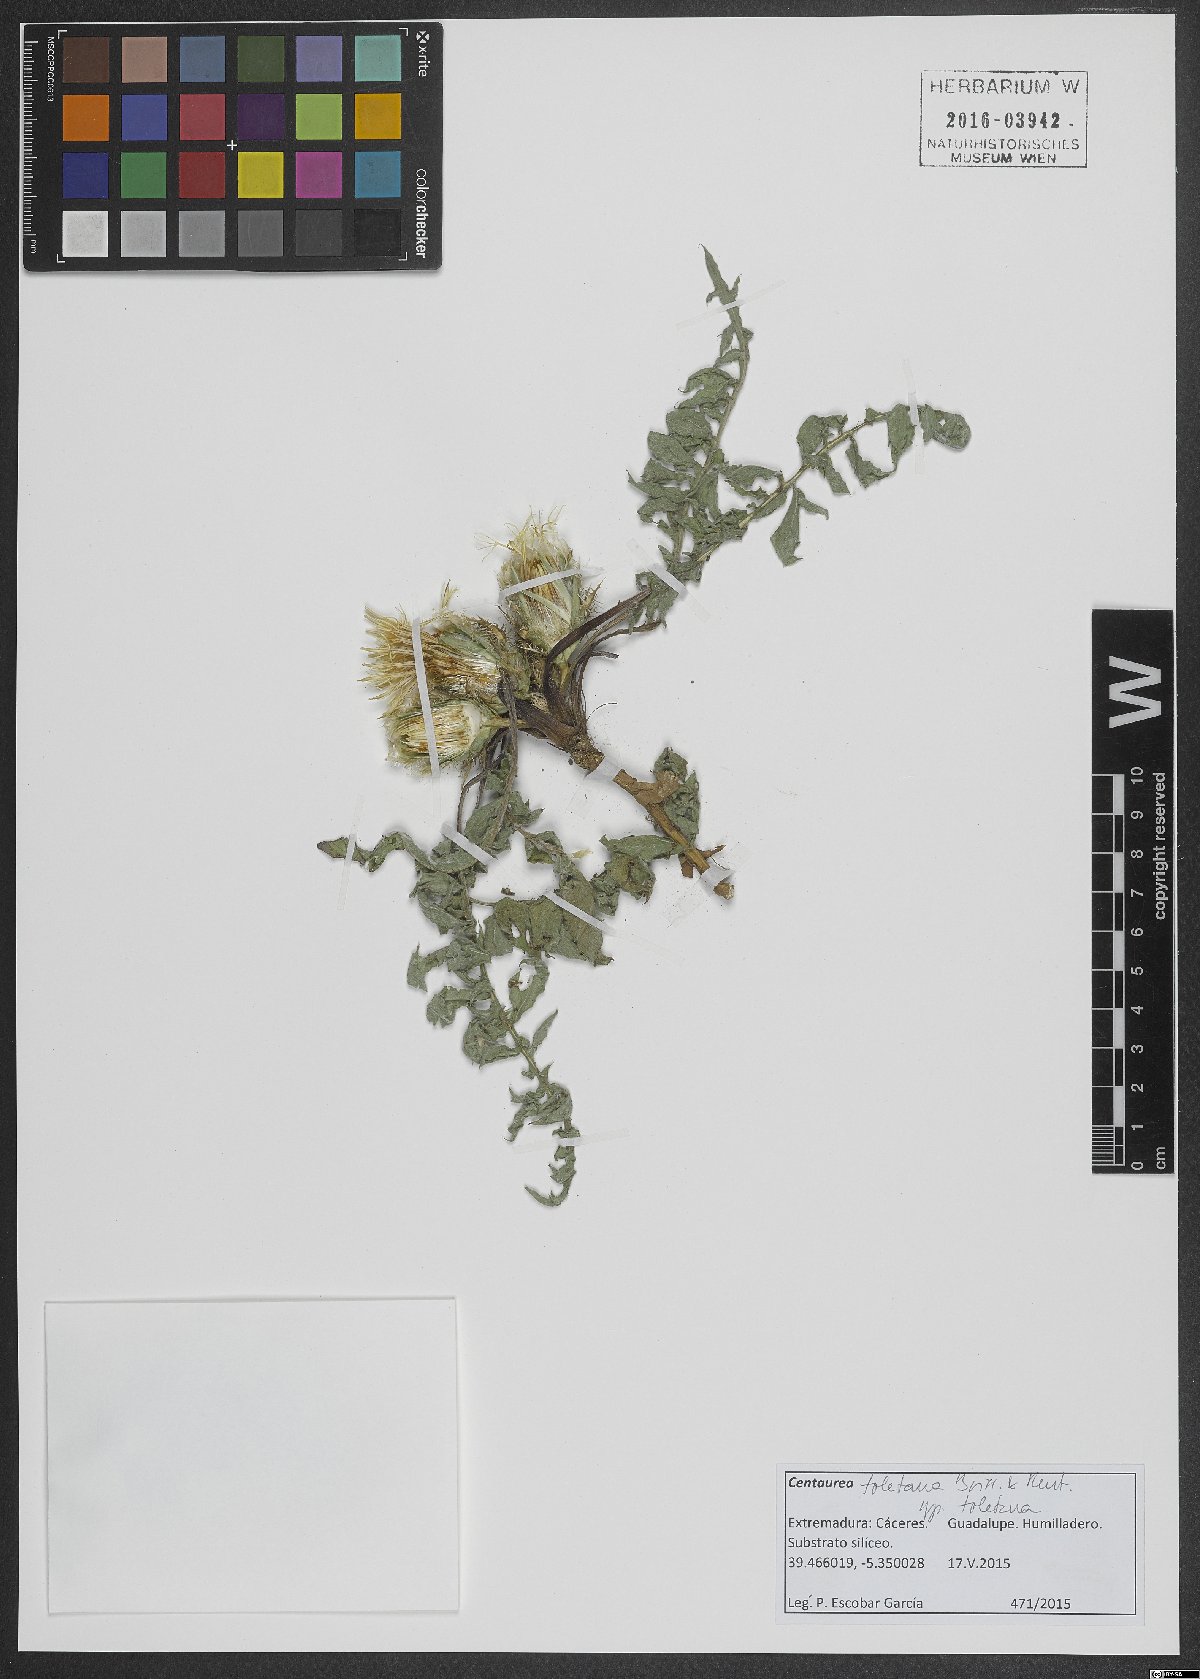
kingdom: Plantae
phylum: Tracheophyta
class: Magnoliopsida
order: Asterales
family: Asteraceae
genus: Centaurea
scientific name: Centaurea toletana
